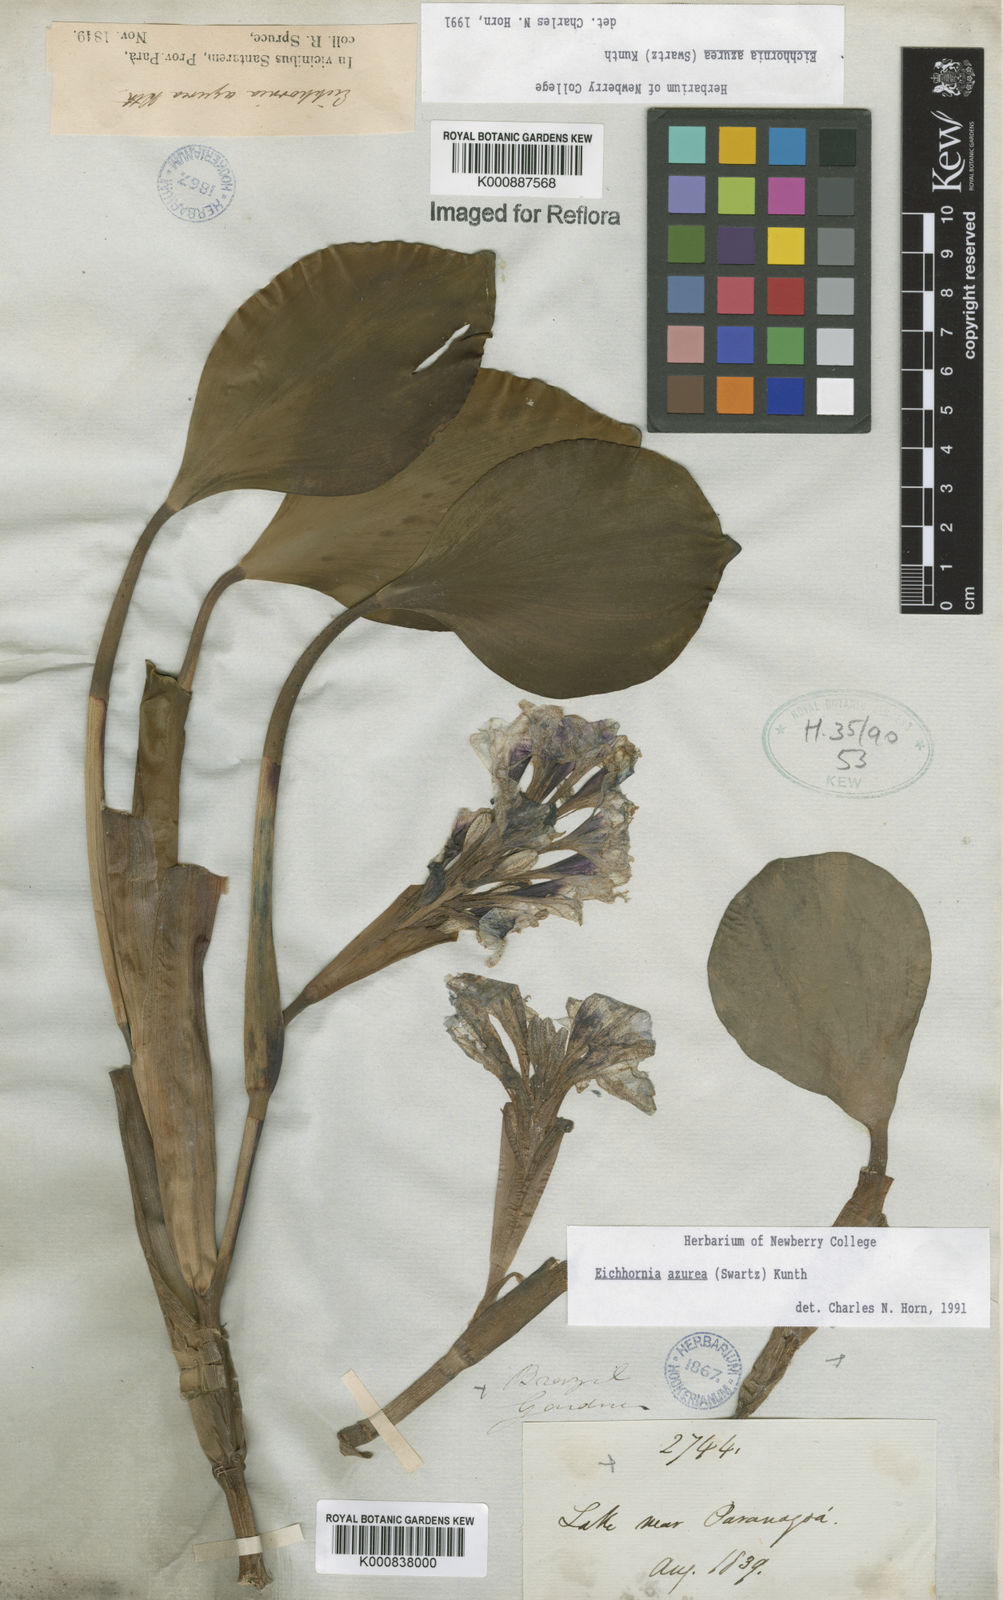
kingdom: Plantae
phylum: Tracheophyta
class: Liliopsida
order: Commelinales
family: Pontederiaceae
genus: Pontederia
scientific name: Pontederia azurea
